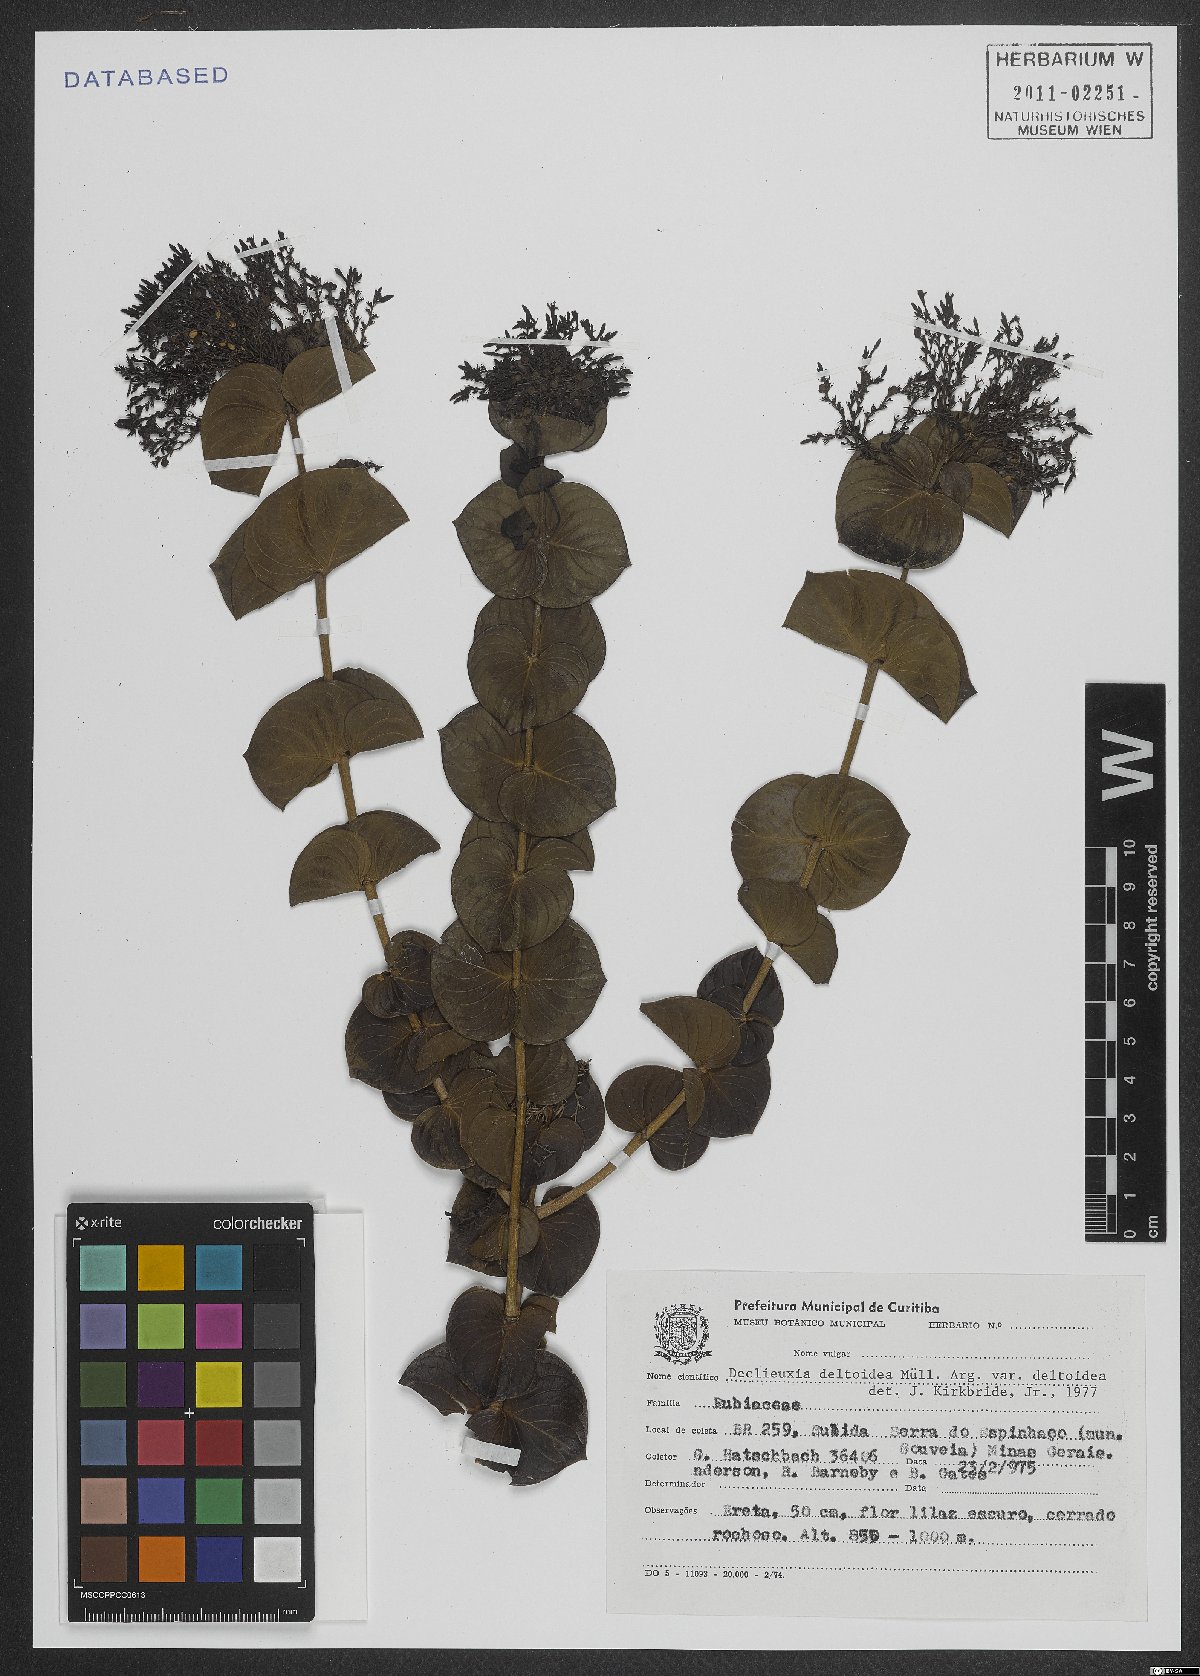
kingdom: Plantae
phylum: Tracheophyta
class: Magnoliopsida
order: Gentianales
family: Rubiaceae
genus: Declieuxia
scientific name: Declieuxia deltoidea
